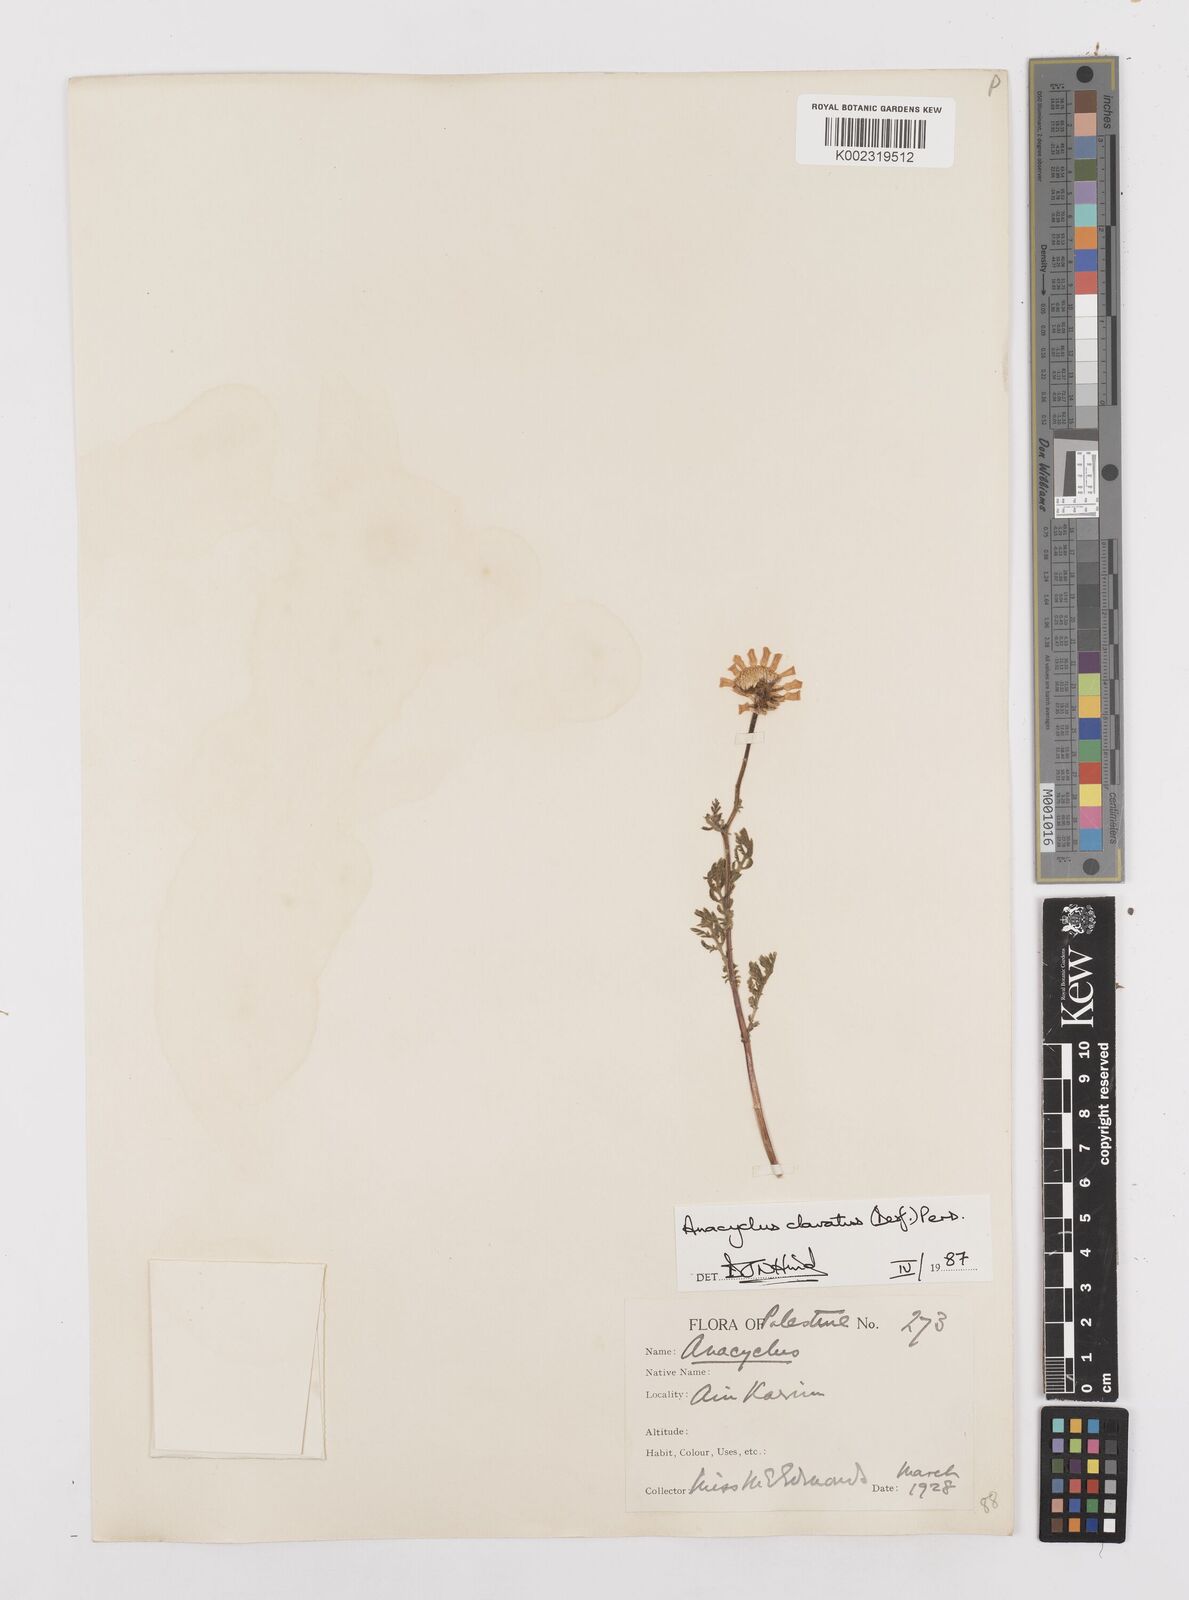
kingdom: Plantae
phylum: Tracheophyta
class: Magnoliopsida
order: Asterales
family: Asteraceae
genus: Anacyclus
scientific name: Anacyclus clavatus
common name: Whitebuttons
